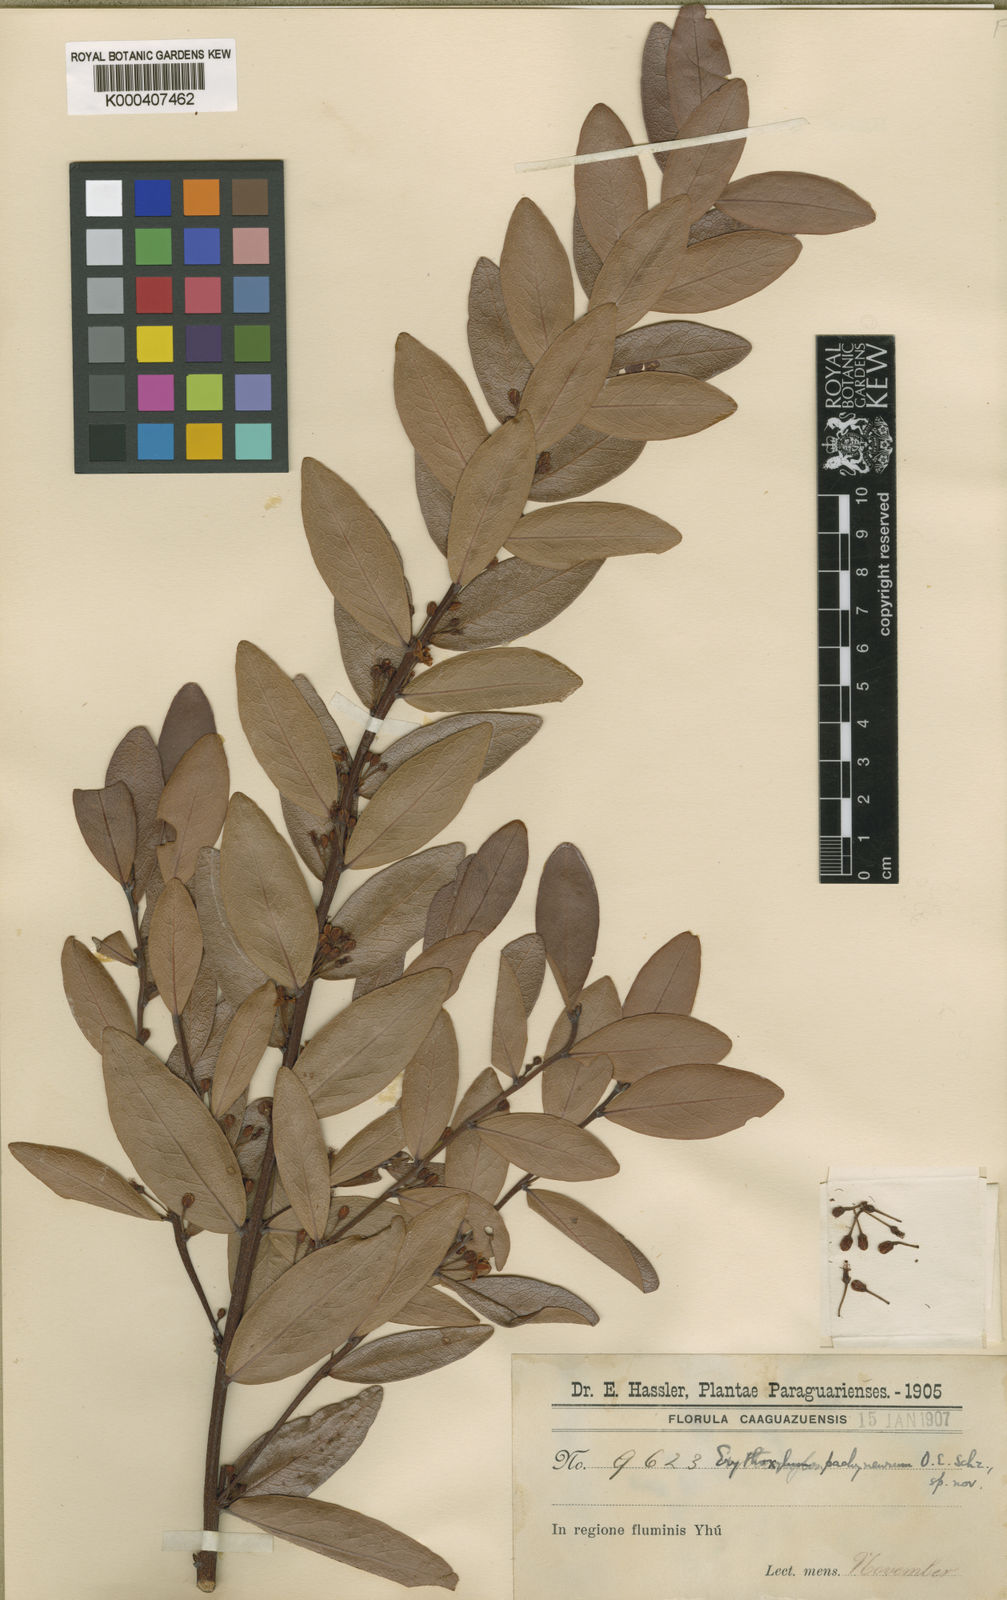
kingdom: Plantae
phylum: Tracheophyta
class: Magnoliopsida
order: Malpighiales
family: Erythroxylaceae
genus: Erythroxylum
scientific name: Erythroxylum pachyneurum
